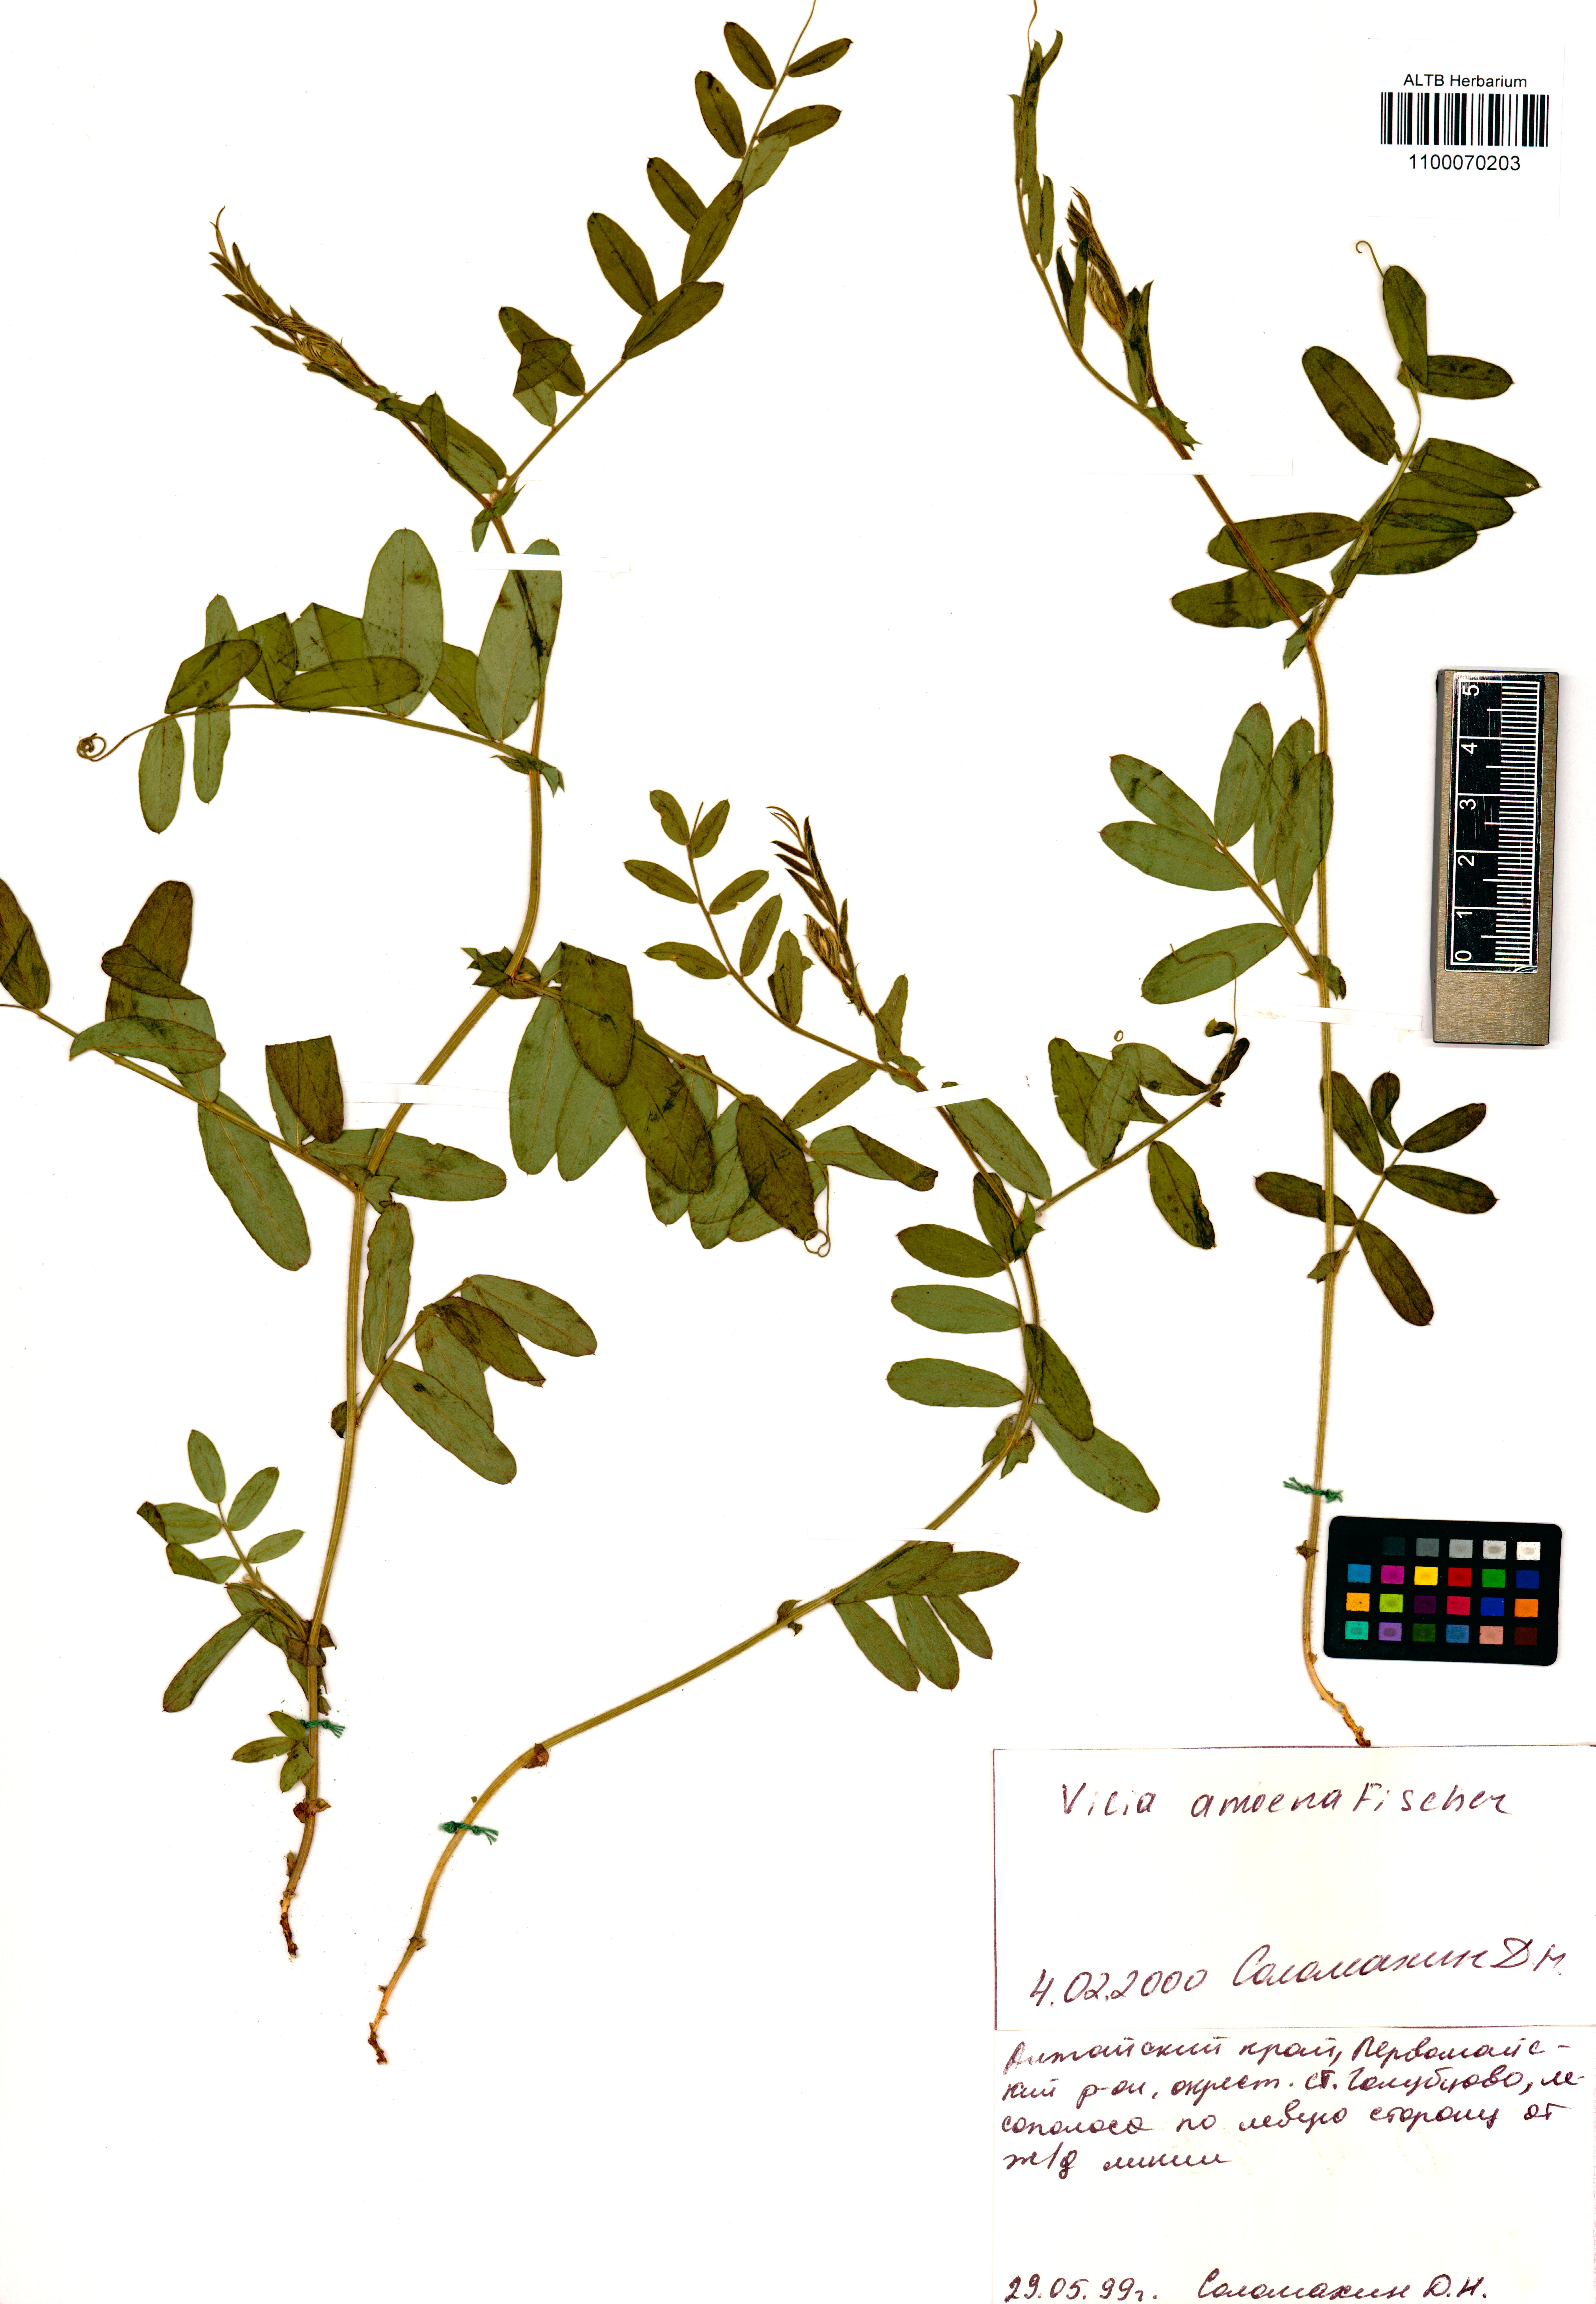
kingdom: Plantae
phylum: Tracheophyta
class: Magnoliopsida
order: Fabales
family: Fabaceae
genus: Vicia
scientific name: Vicia amoena
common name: Cheder ebs
